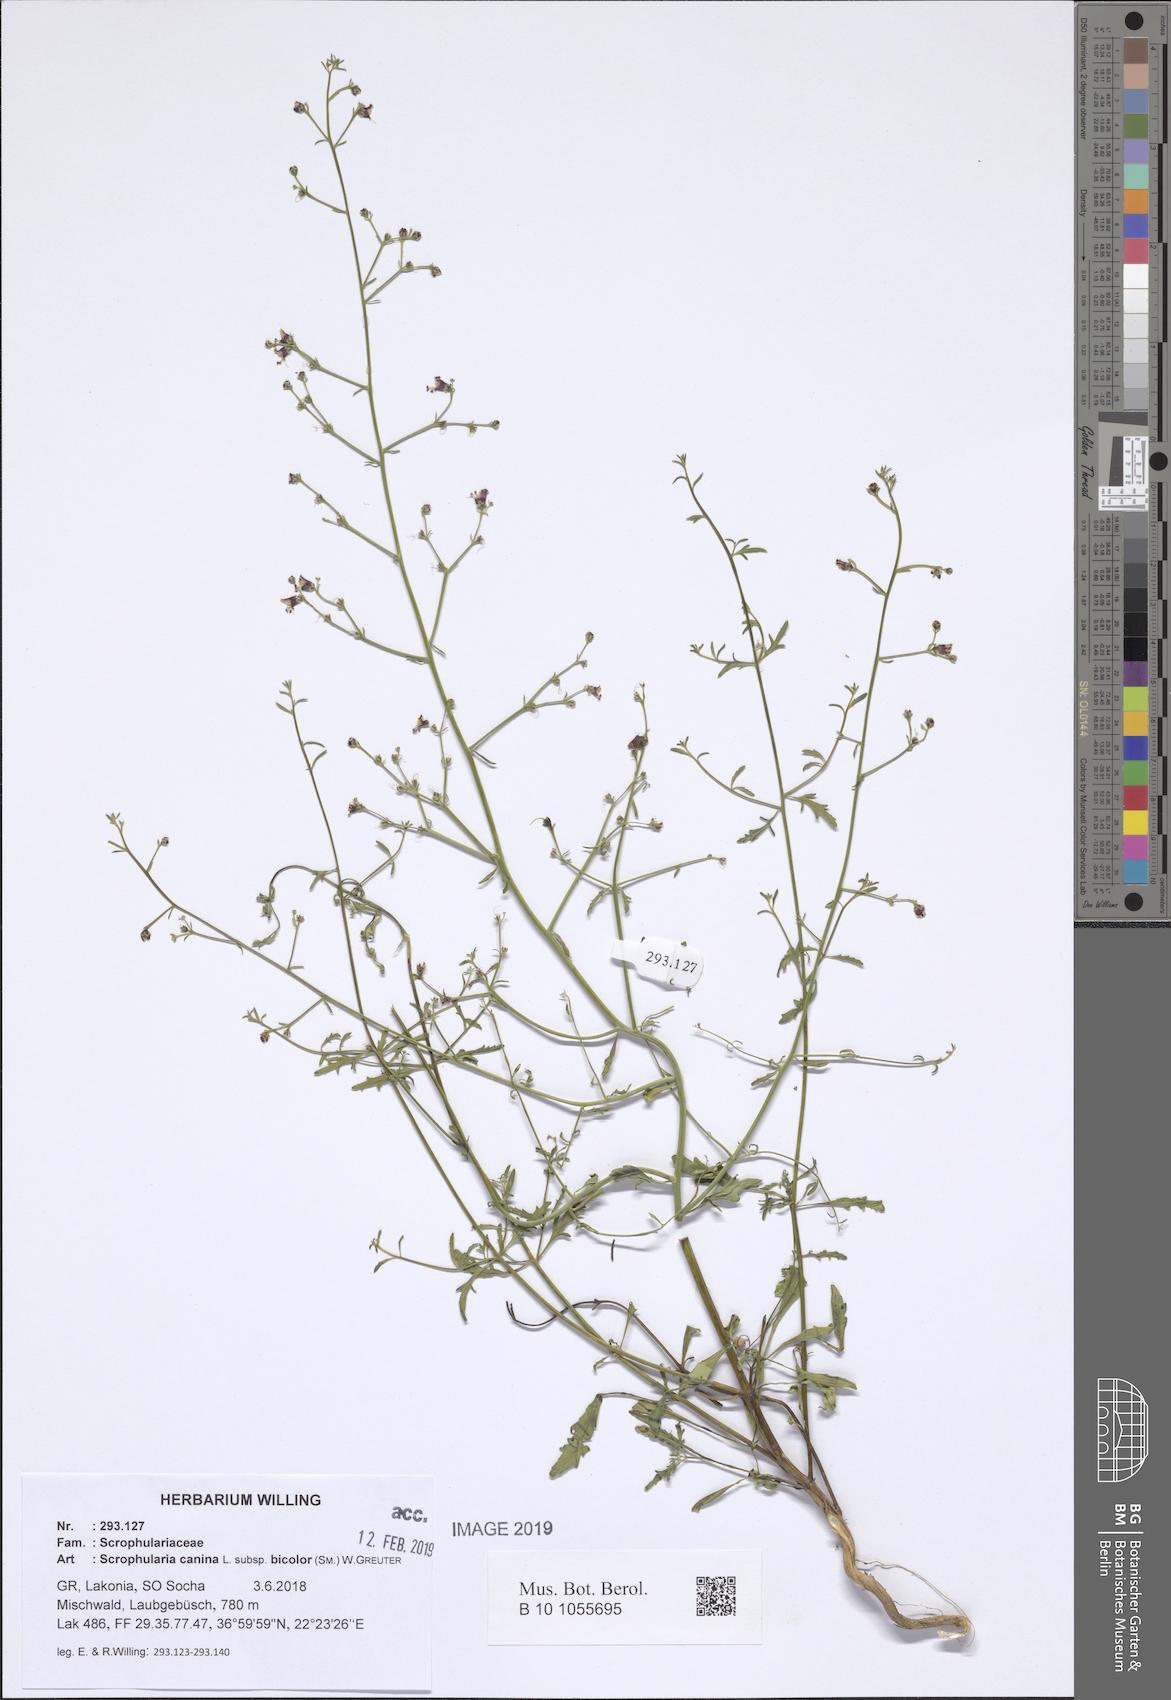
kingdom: Plantae
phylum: Tracheophyta
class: Magnoliopsida
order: Lamiales
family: Scrophulariaceae
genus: Scrophularia
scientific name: Scrophularia canina
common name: French figwort
